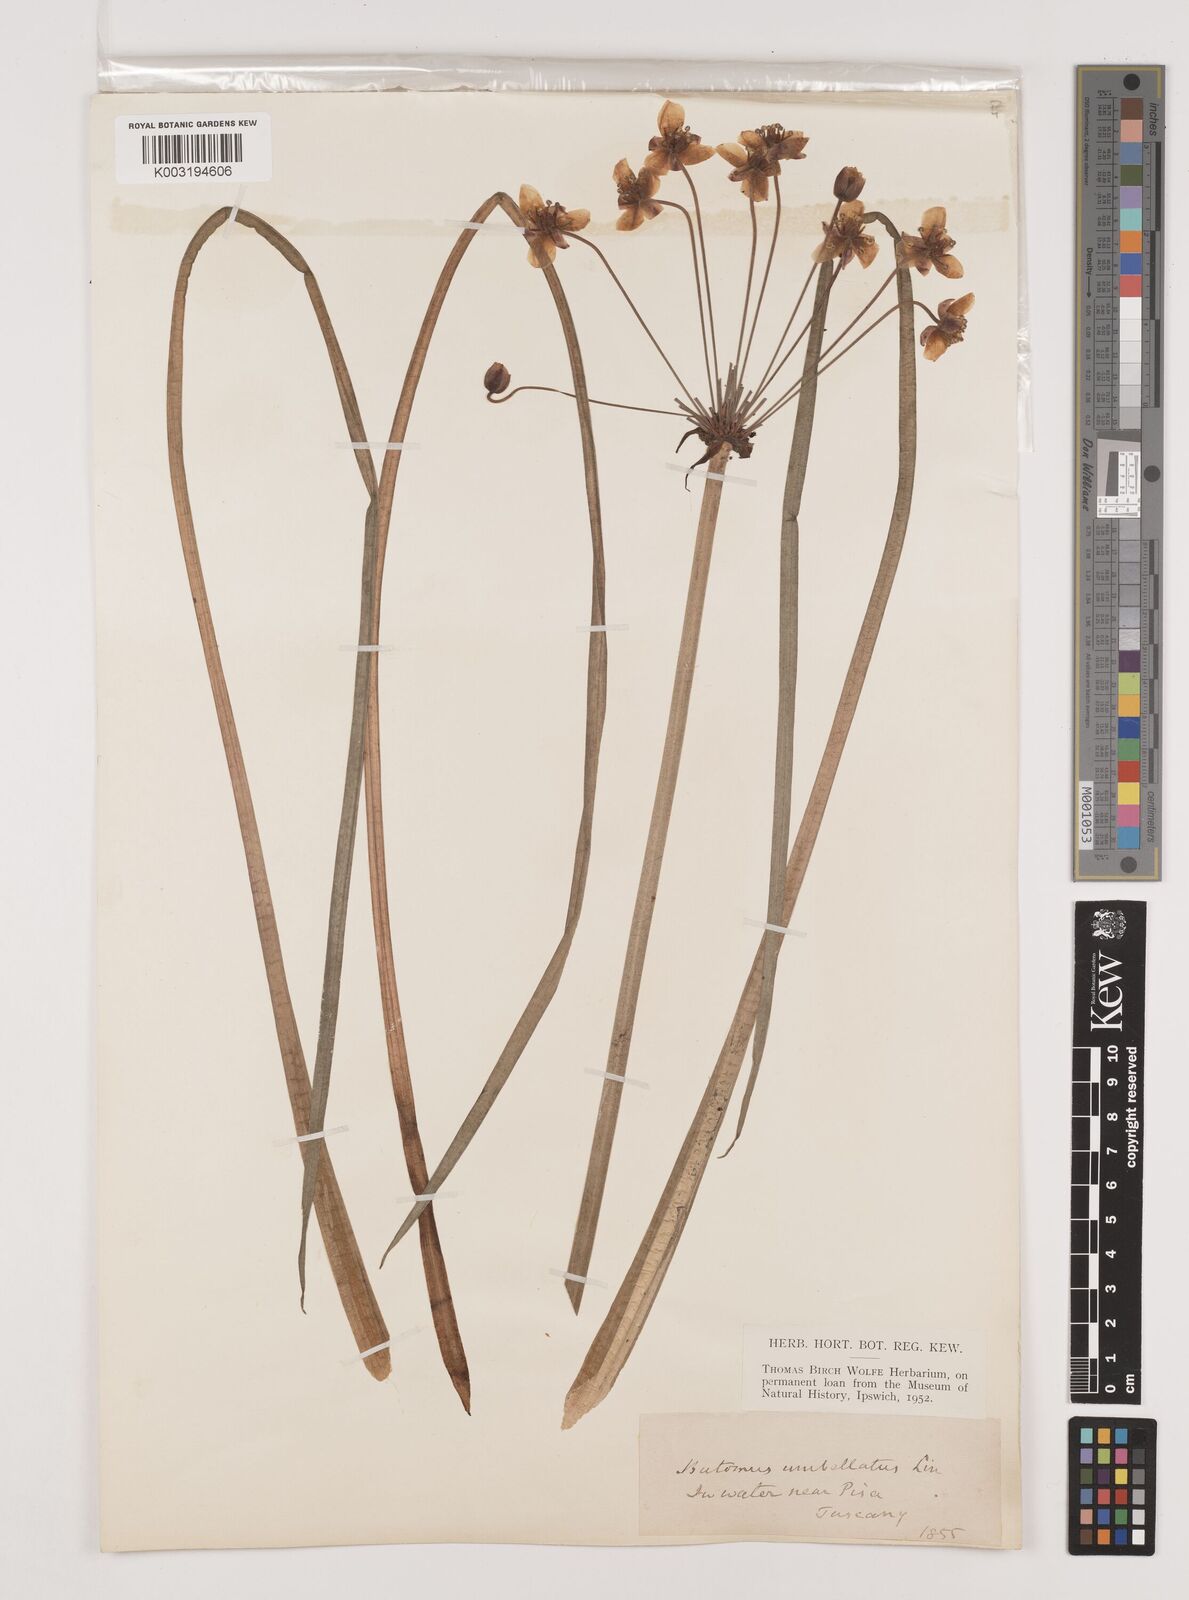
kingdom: Plantae
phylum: Tracheophyta
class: Liliopsida
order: Alismatales
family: Butomaceae
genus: Butomus
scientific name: Butomus umbellatus
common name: Flowering-rush
